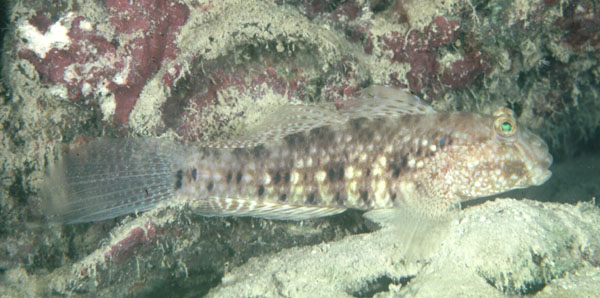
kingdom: Animalia
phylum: Chordata
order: Perciformes
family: Gobiidae
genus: Exyrias
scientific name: Exyrias belissimus
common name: Mud reef-goby
